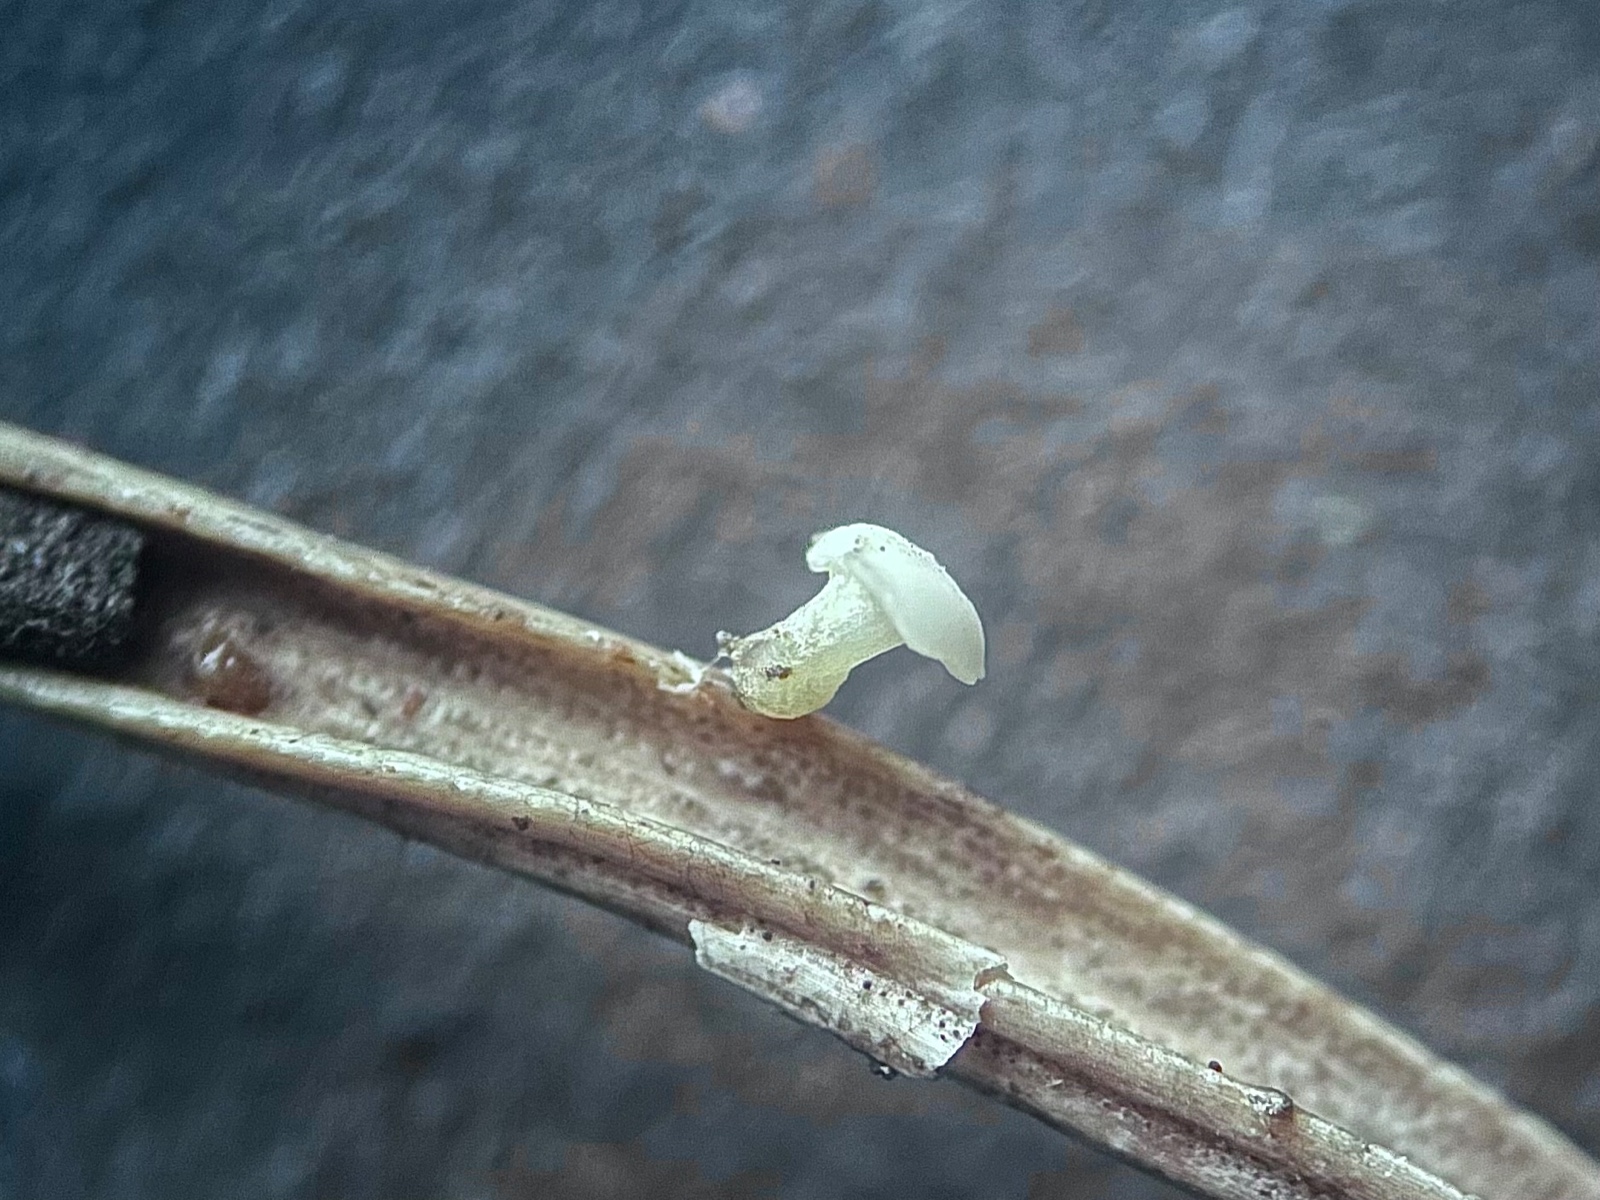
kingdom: Fungi
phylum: Ascomycota
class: Leotiomycetes
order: Helotiales
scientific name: Helotiales
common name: stilkskiveordenen
